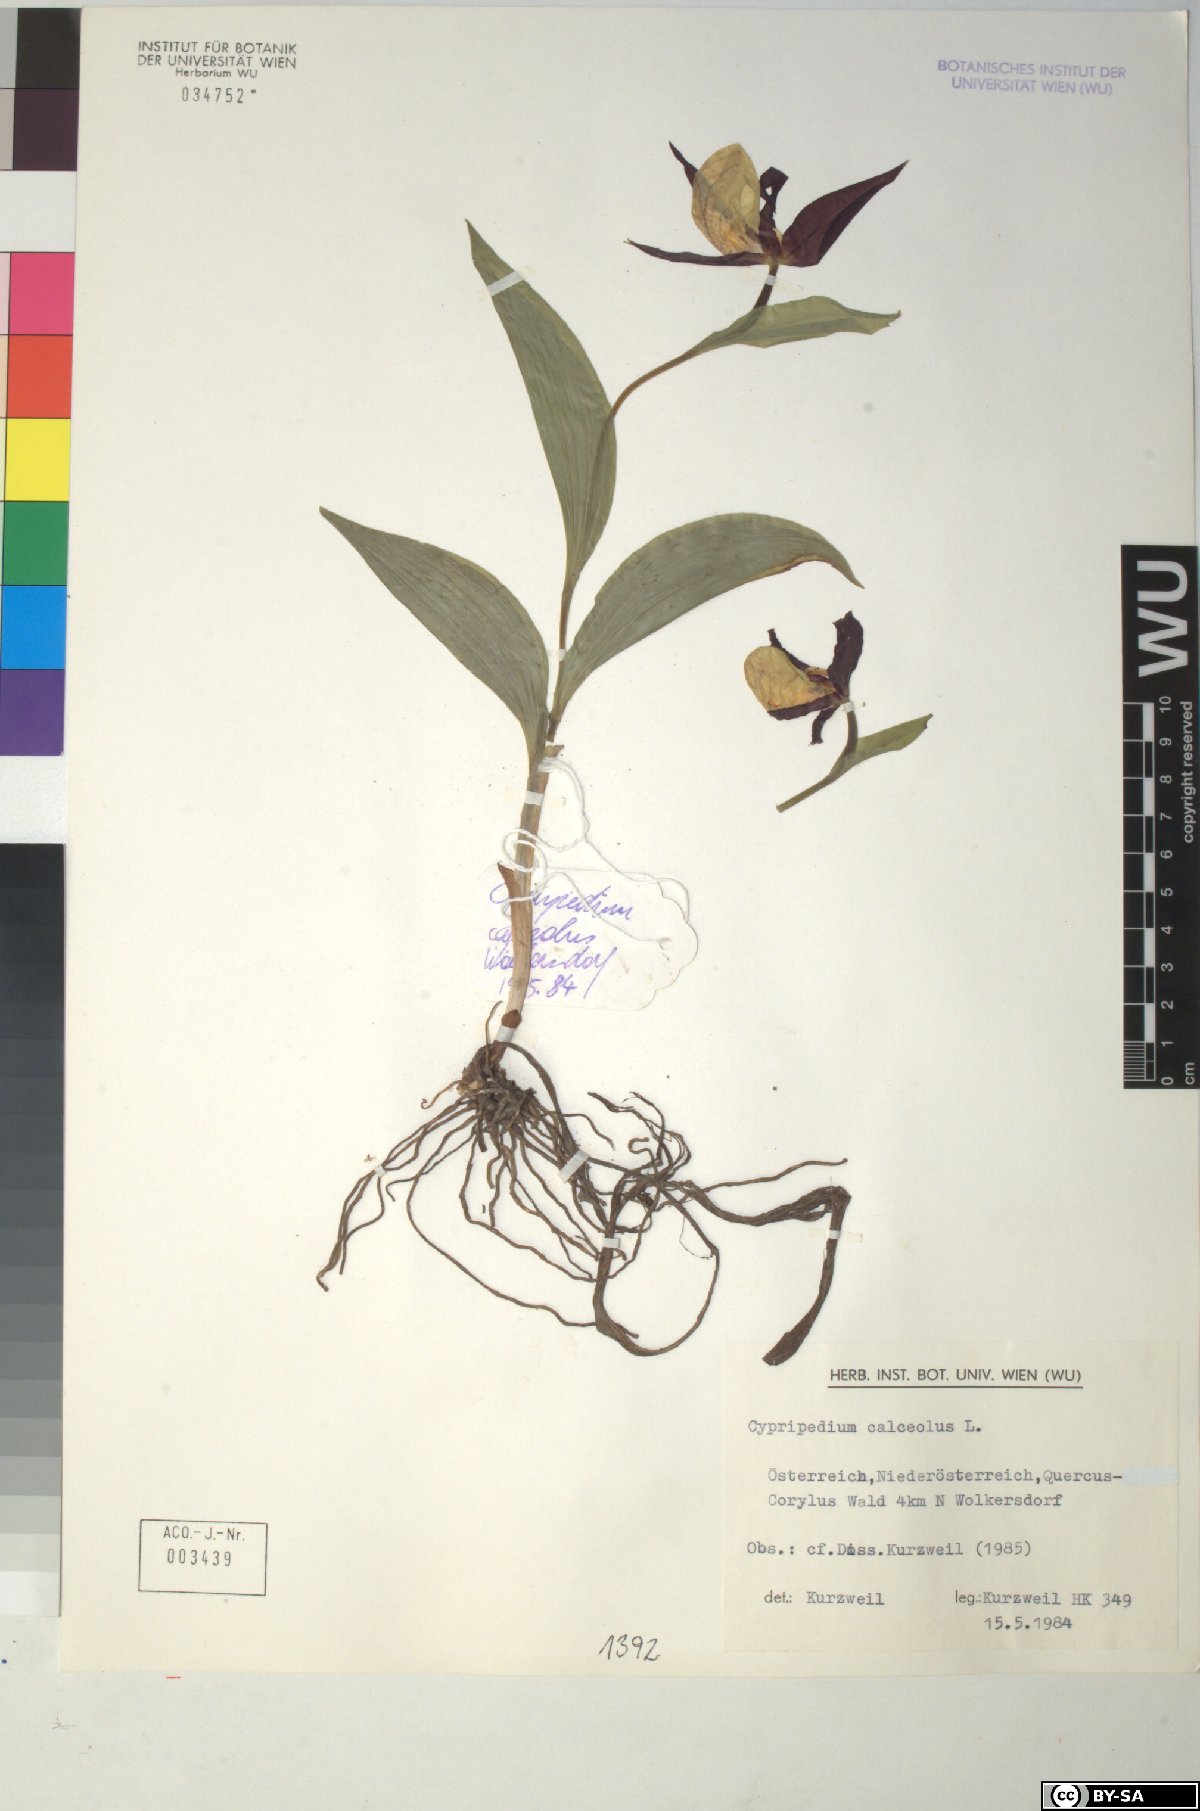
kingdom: Plantae
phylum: Tracheophyta
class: Liliopsida
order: Asparagales
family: Orchidaceae
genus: Cypripedium
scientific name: Cypripedium calceolus
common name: Lady's-slipper
